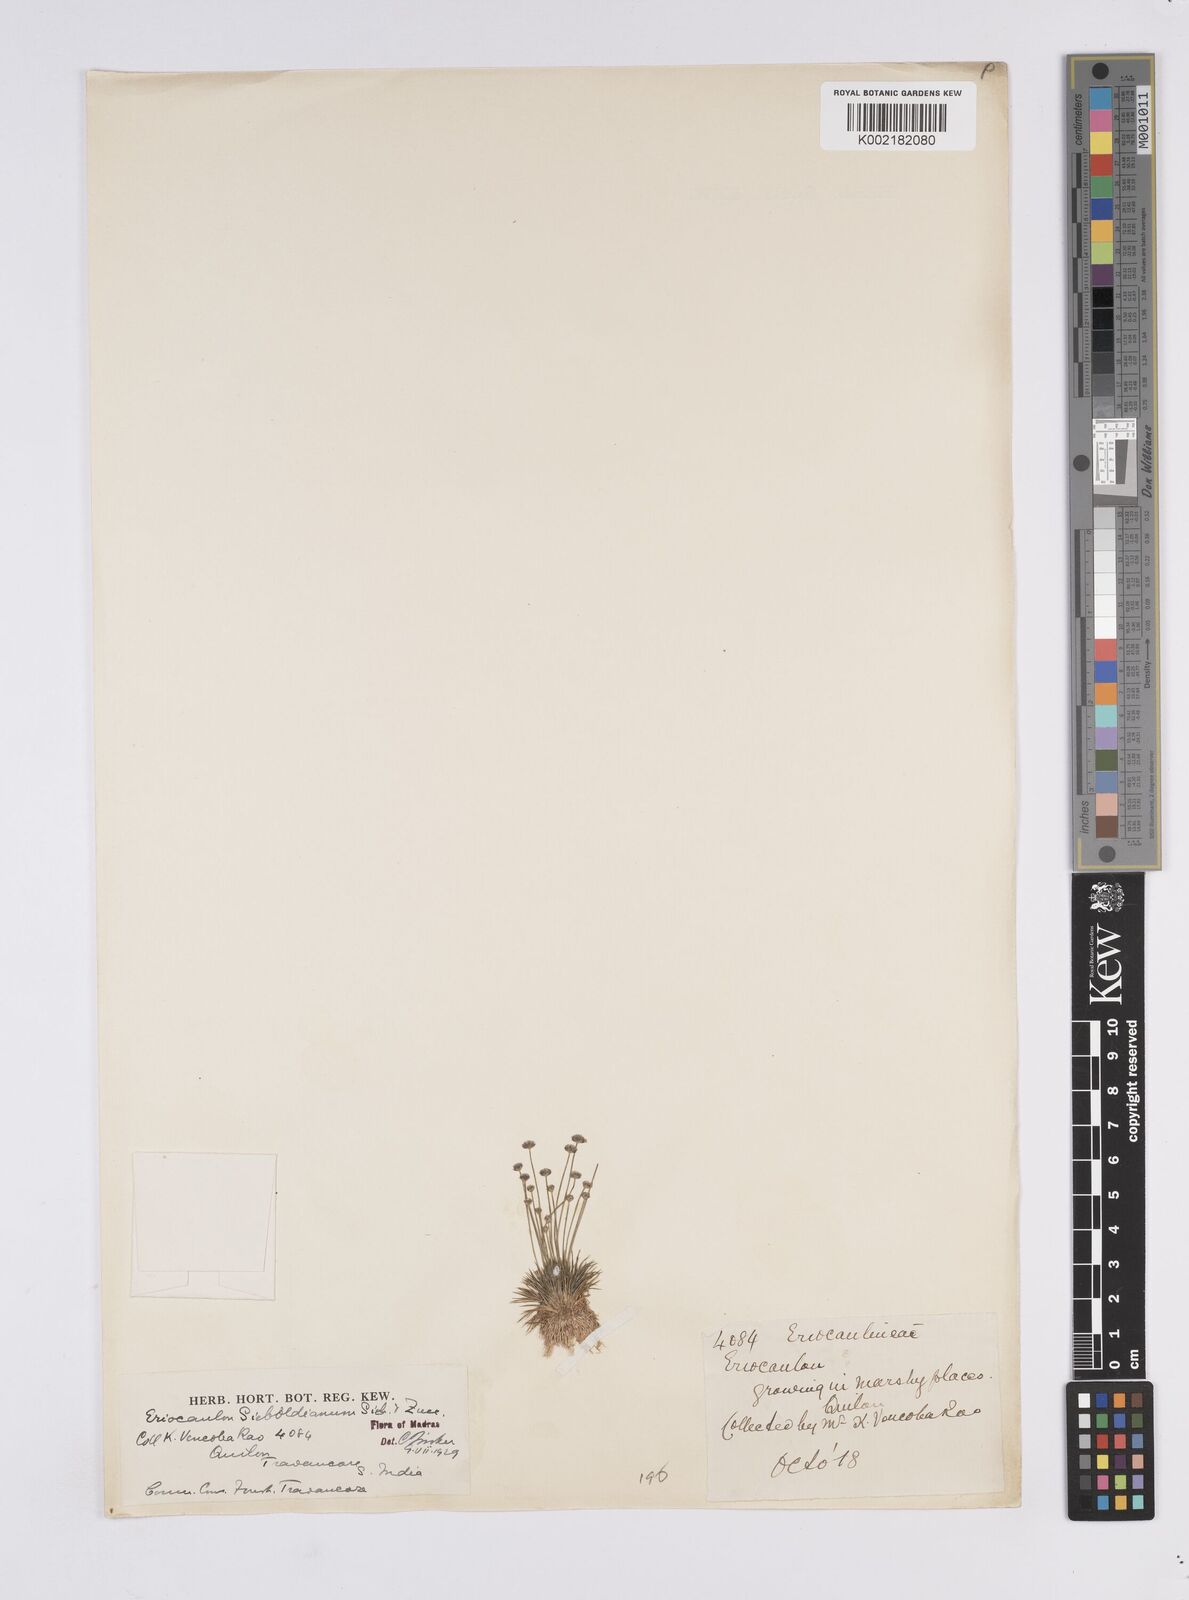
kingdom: Plantae
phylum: Tracheophyta
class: Liliopsida
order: Poales
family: Eriocaulaceae
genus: Eriocaulon
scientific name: Eriocaulon cinereum
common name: Ashy pipewort
